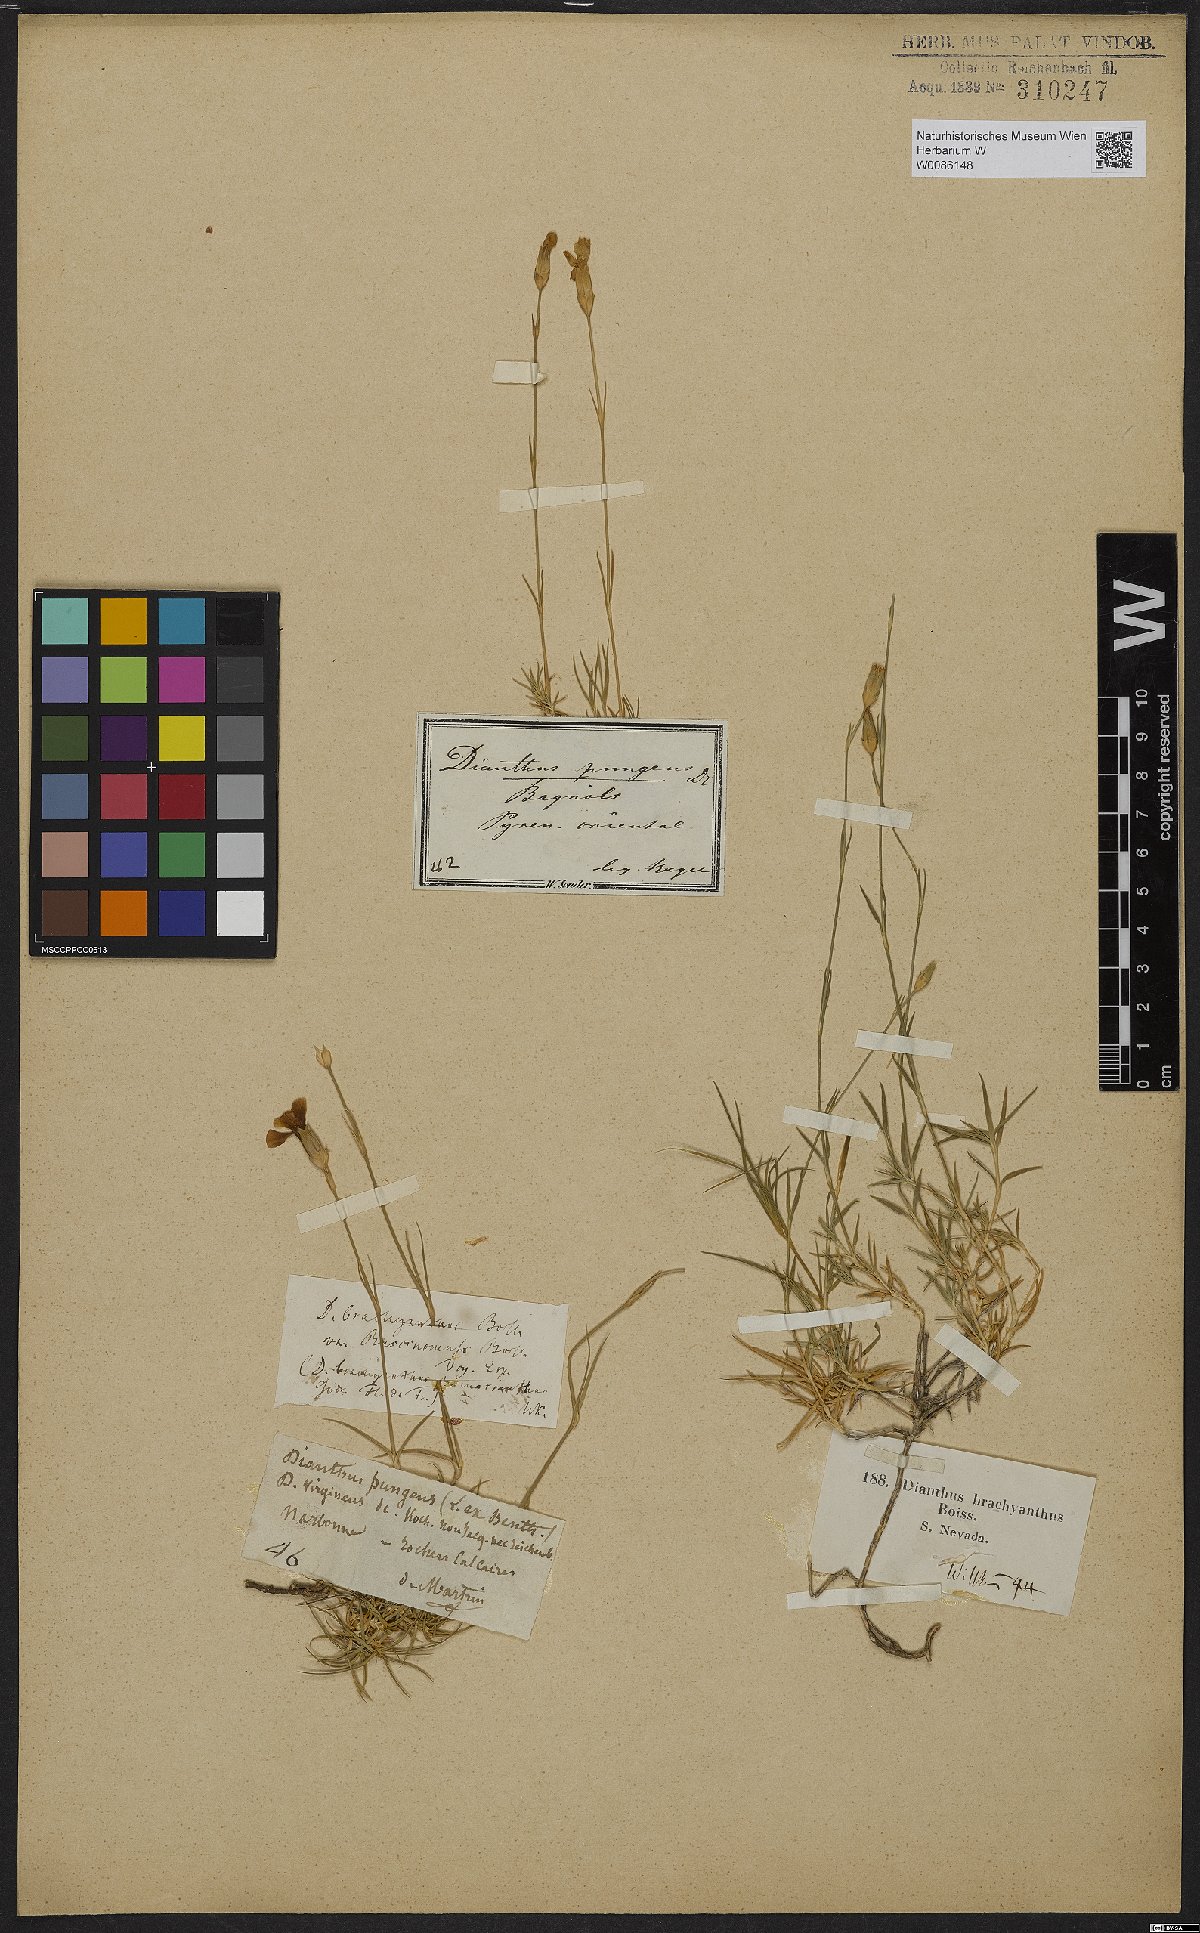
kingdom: Plantae
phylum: Tracheophyta
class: Magnoliopsida
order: Caryophyllales
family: Caryophyllaceae
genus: Dianthus
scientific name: Dianthus pungens
